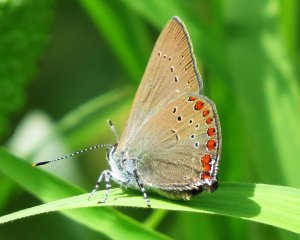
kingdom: Animalia
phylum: Arthropoda
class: Insecta
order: Lepidoptera
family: Lycaenidae
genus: Harkenclenus
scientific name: Harkenclenus titus
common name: Coral Hairstreak
